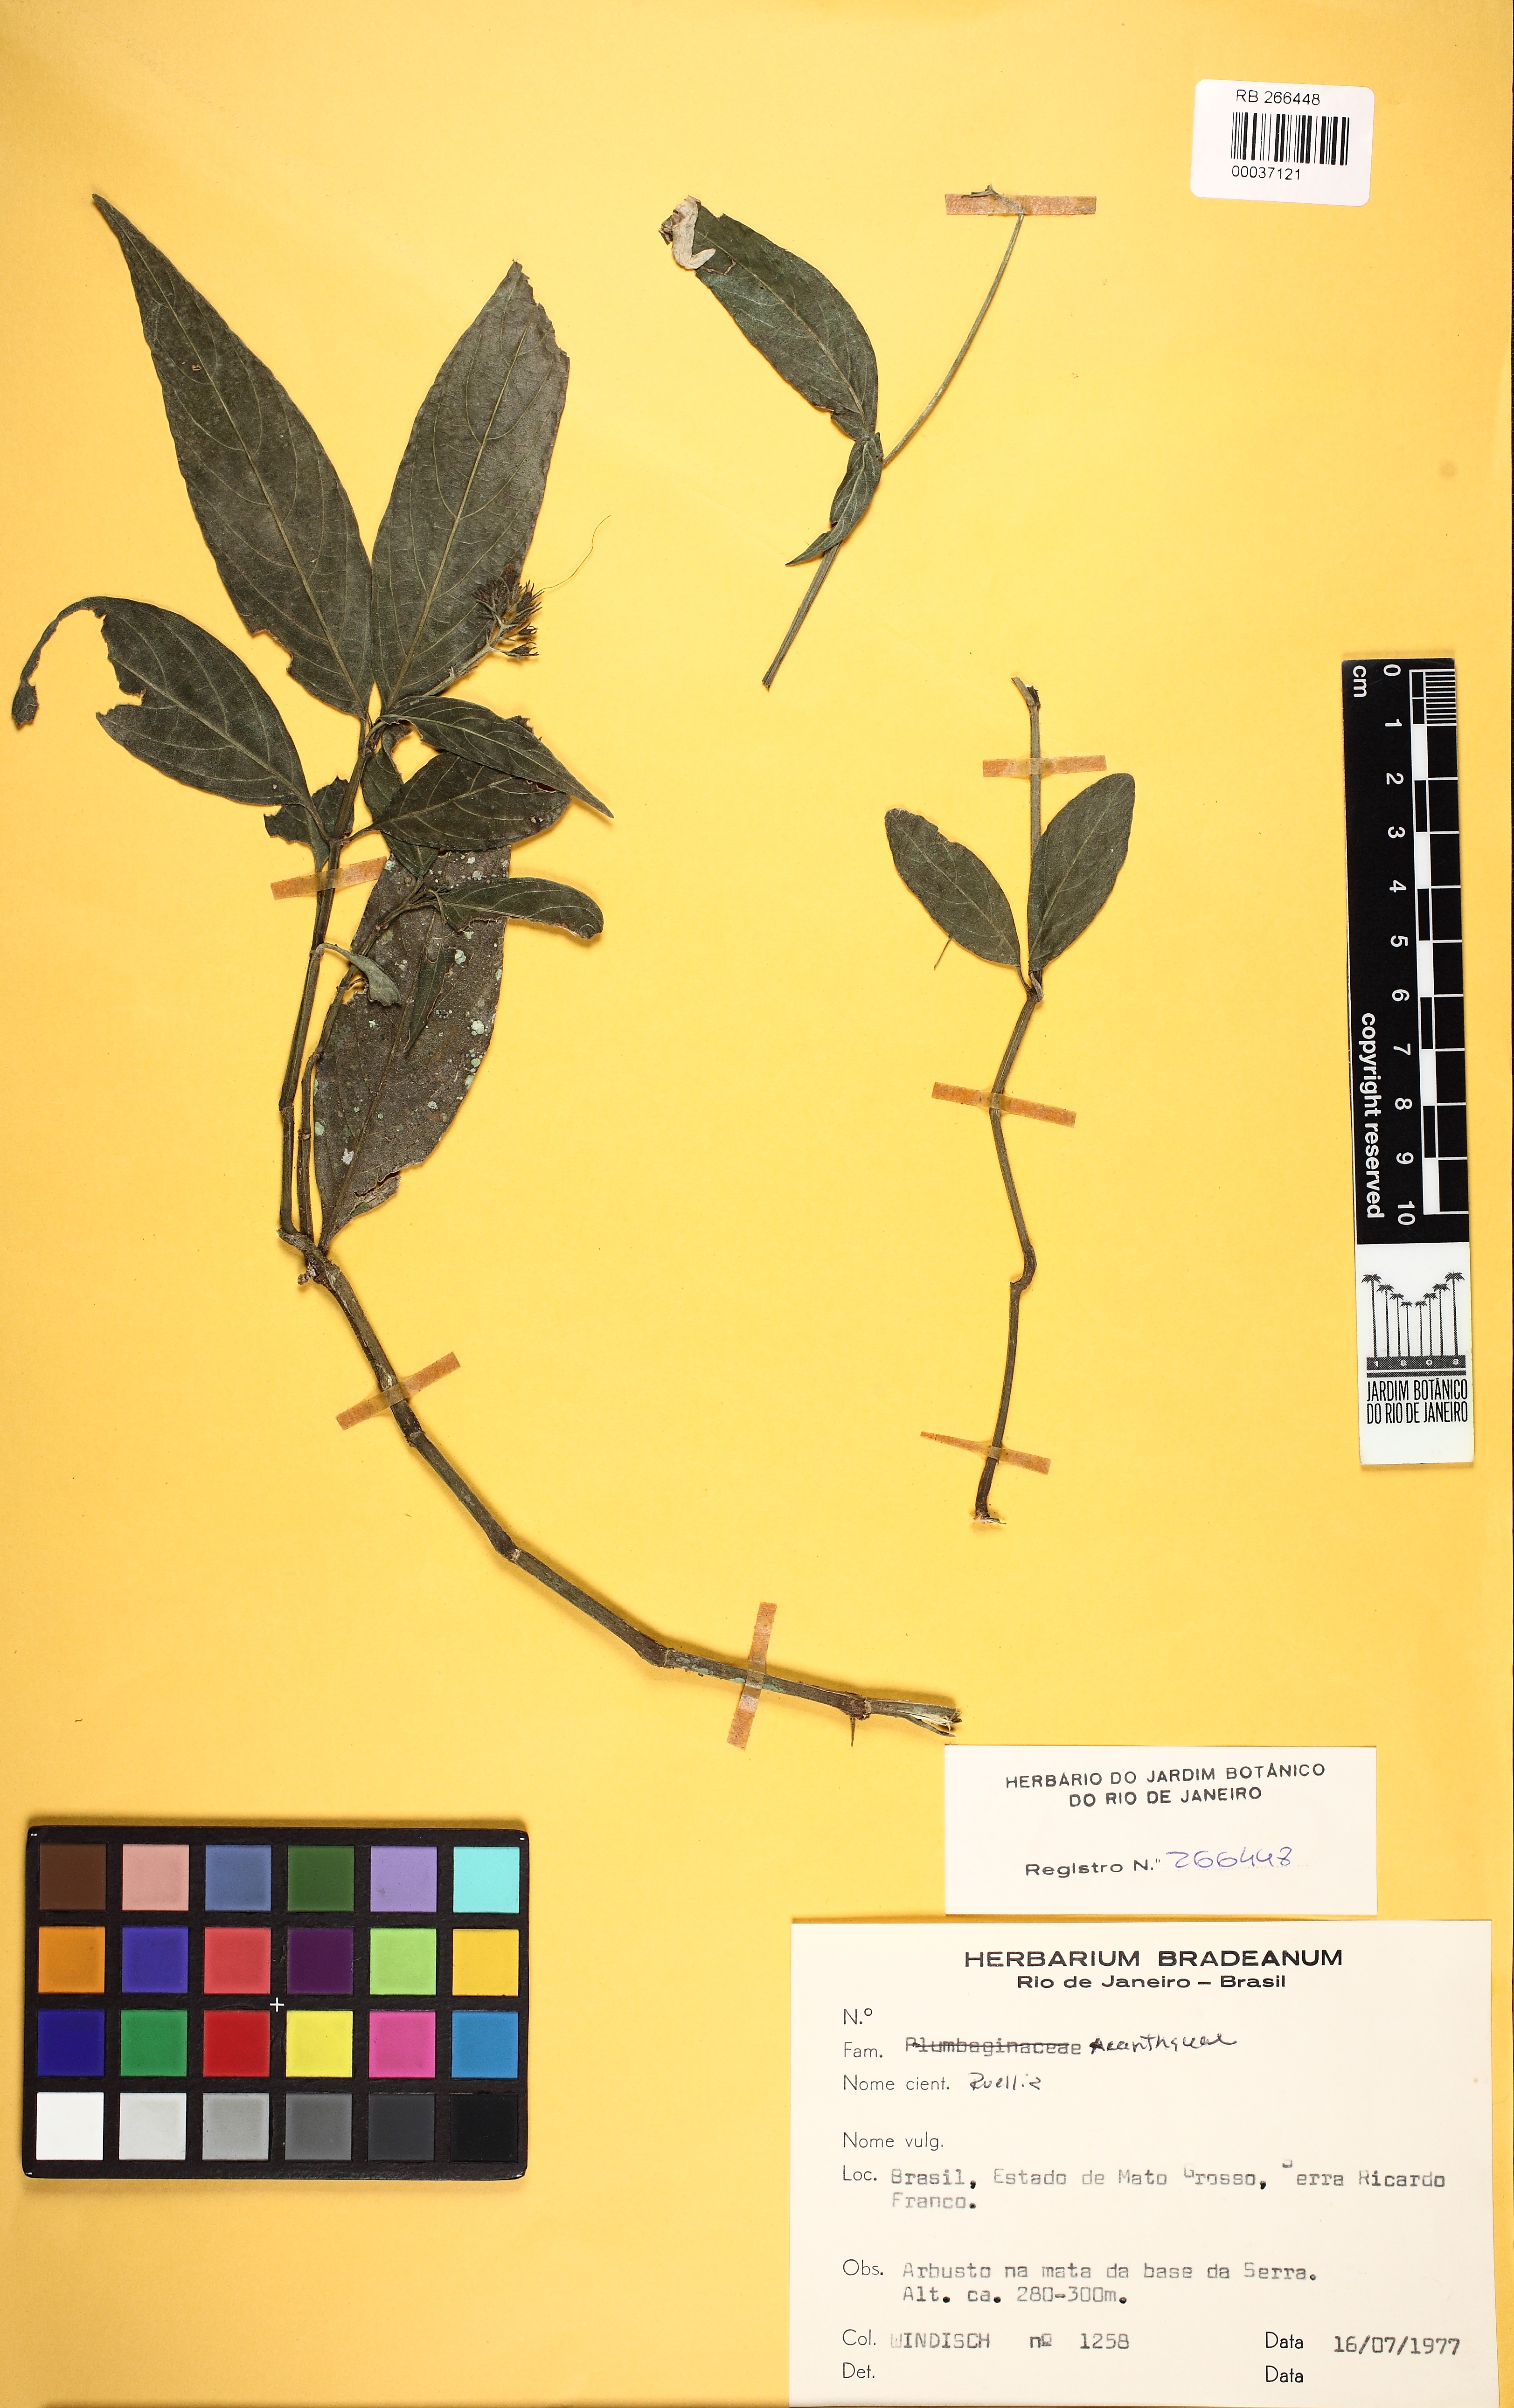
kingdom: Plantae
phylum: Tracheophyta
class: Magnoliopsida
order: Lamiales
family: Acanthaceae
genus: Ruellia
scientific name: Ruellia
